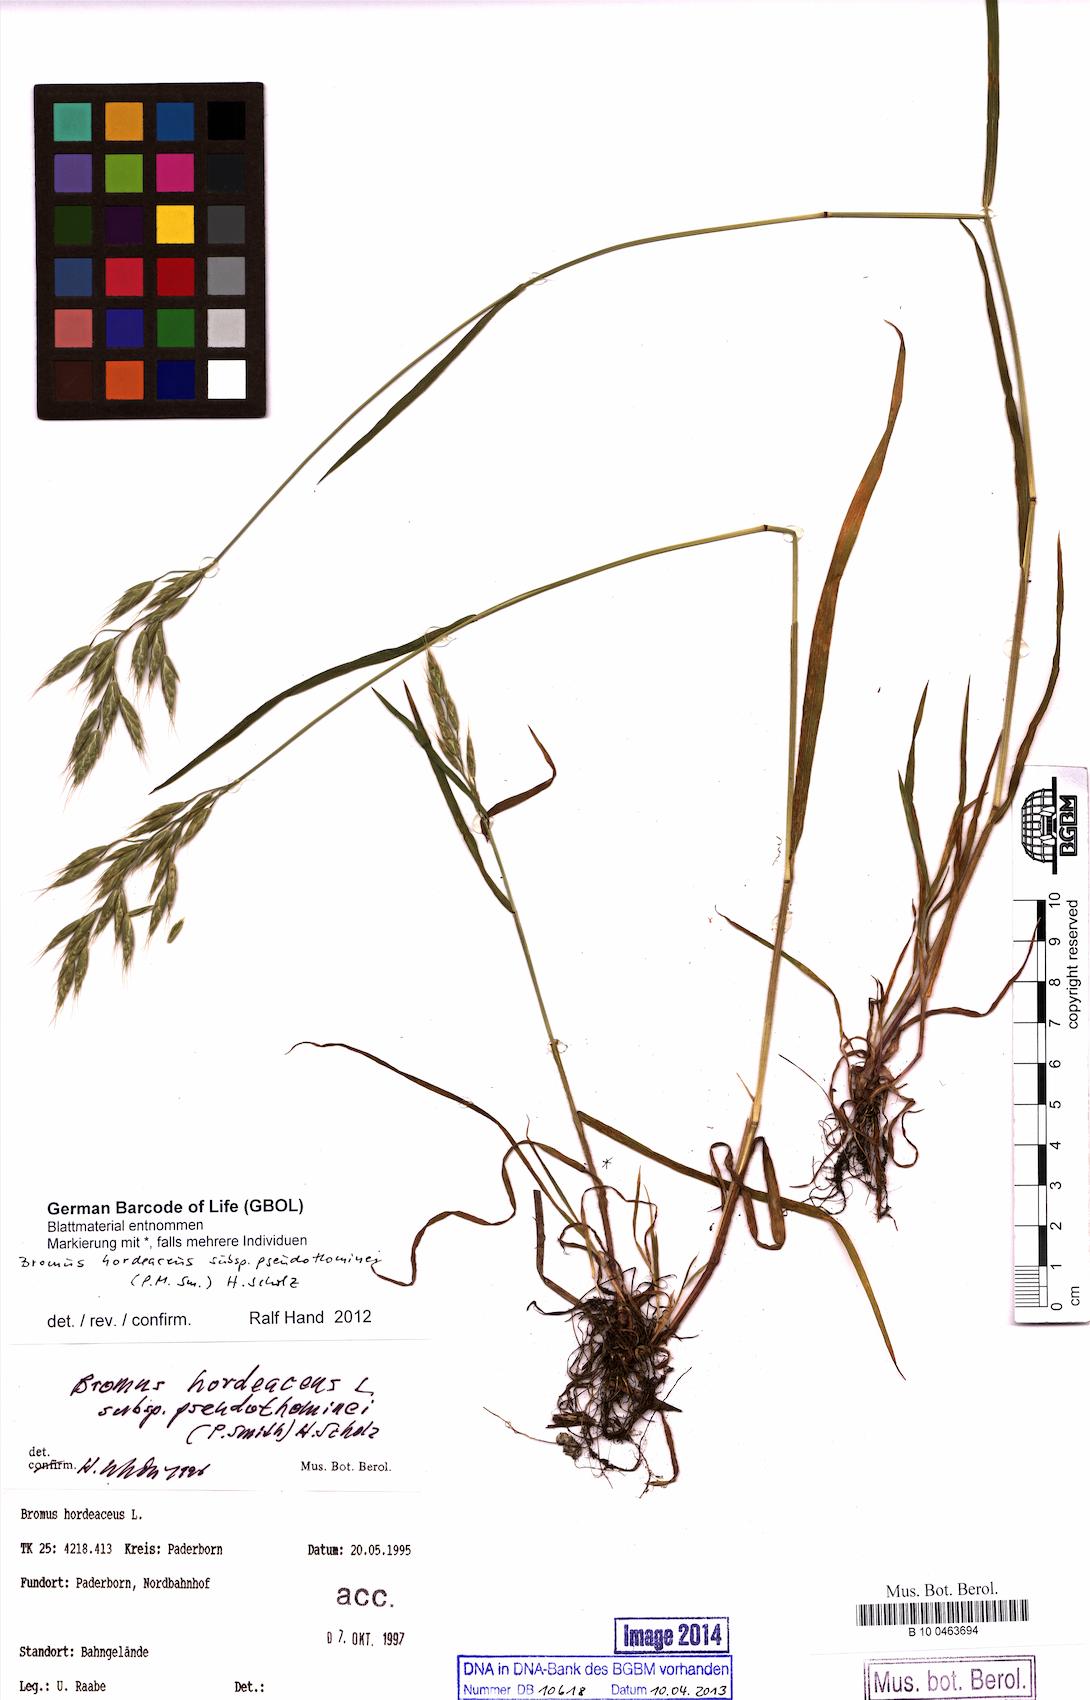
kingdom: Plantae
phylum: Tracheophyta
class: Liliopsida
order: Poales
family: Poaceae
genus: Bromus
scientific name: Bromus ferronii
